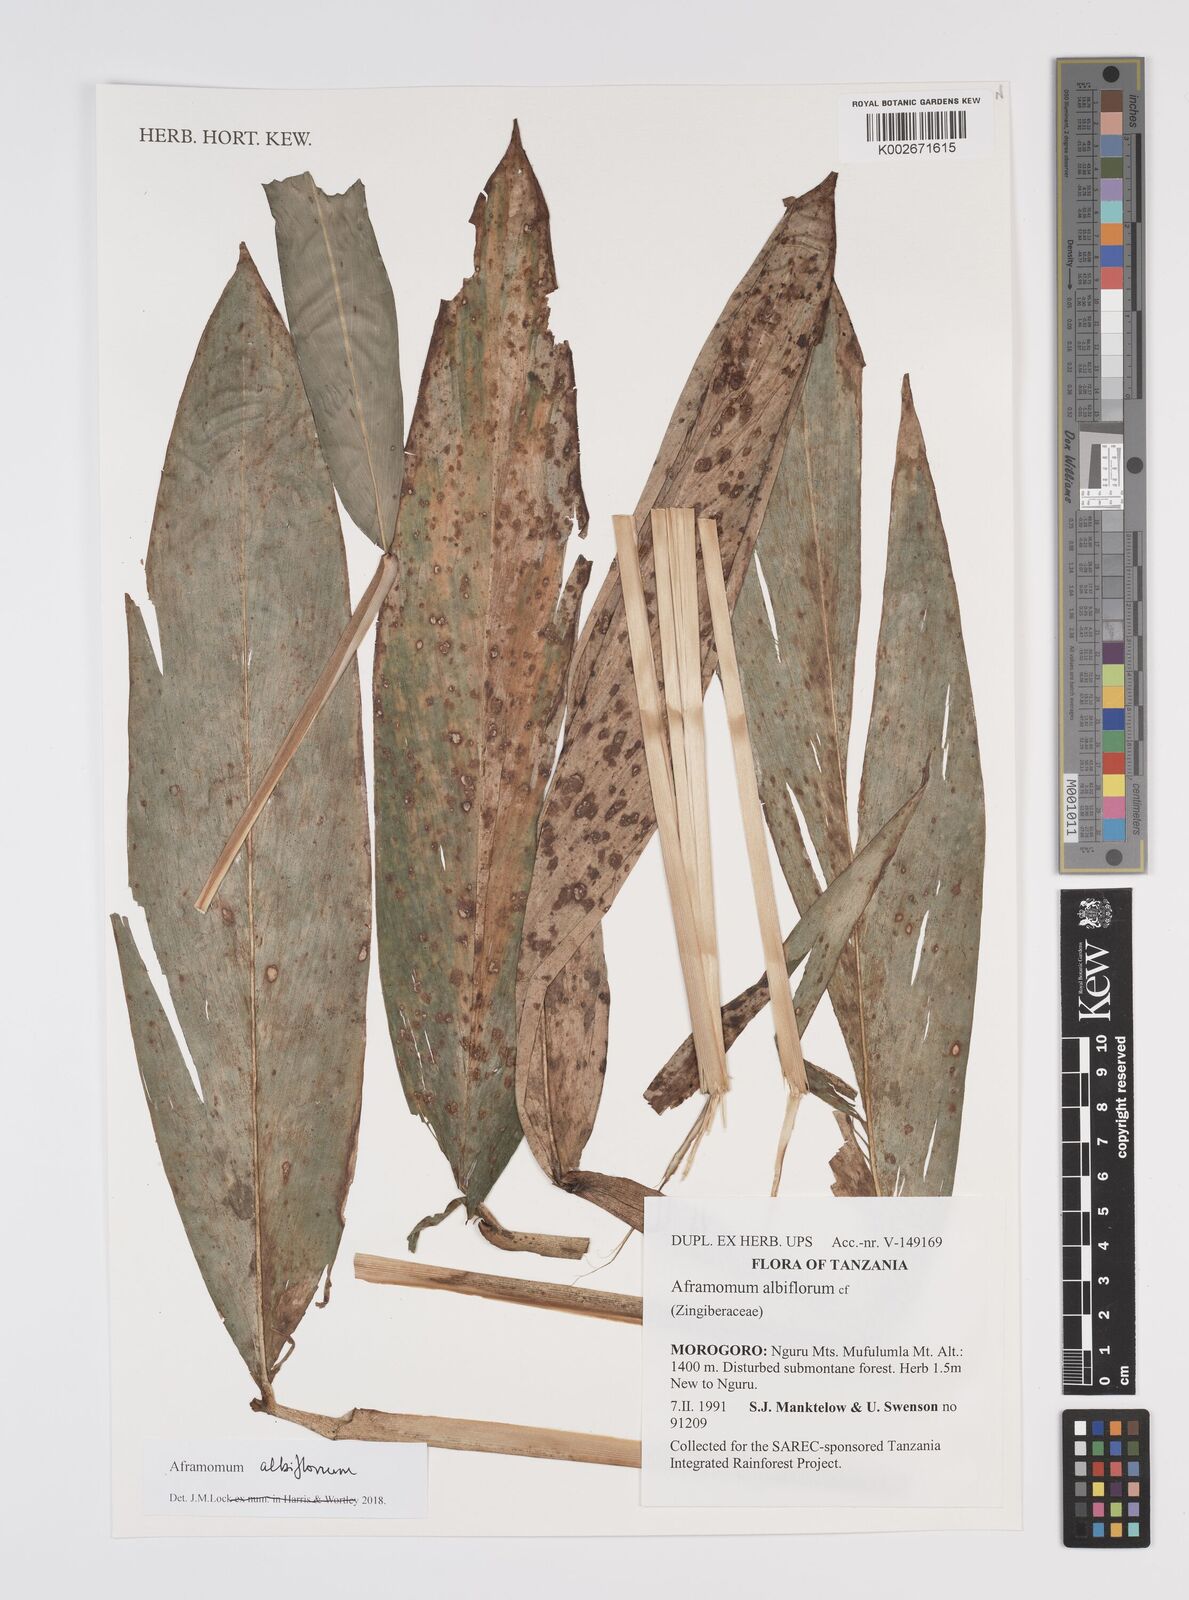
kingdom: Plantae
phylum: Tracheophyta
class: Liliopsida
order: Zingiberales
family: Zingiberaceae
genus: Aframomum
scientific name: Aframomum albiflorum
